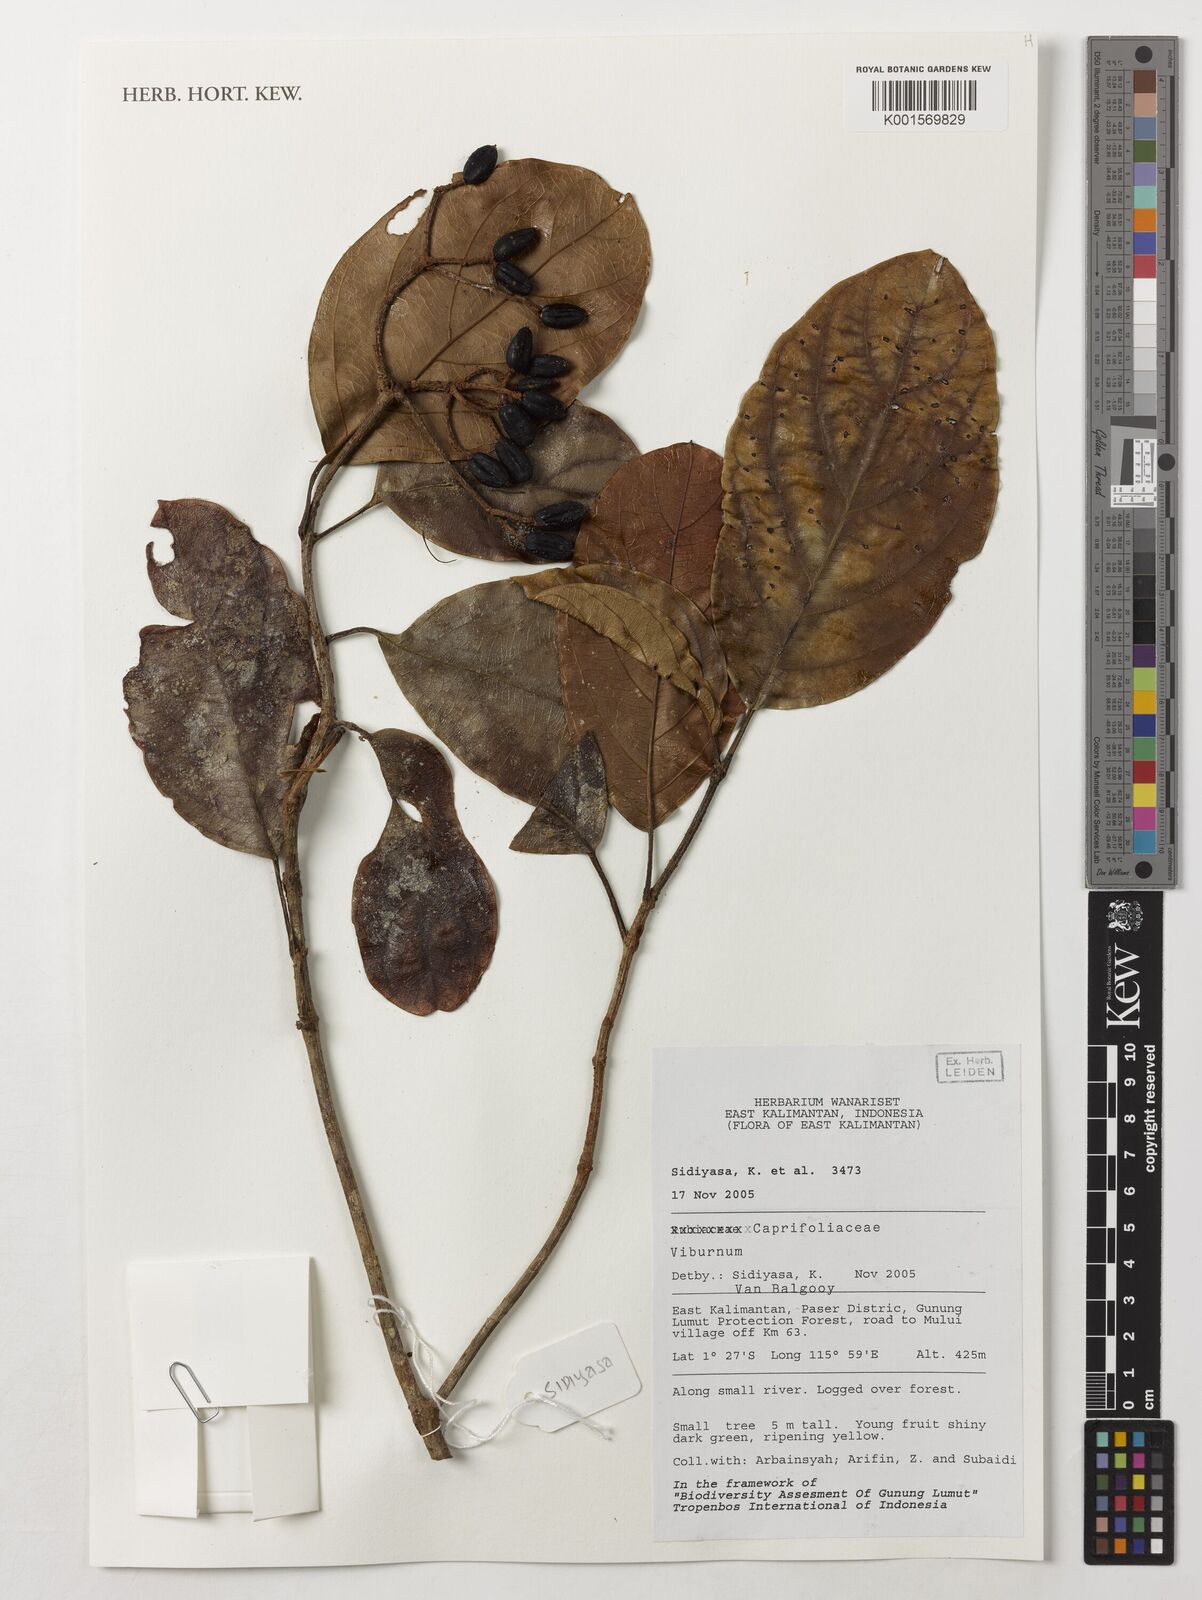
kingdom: Plantae
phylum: Tracheophyta
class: Magnoliopsida
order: Dipsacales
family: Viburnaceae
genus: Viburnum
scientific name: Viburnum
